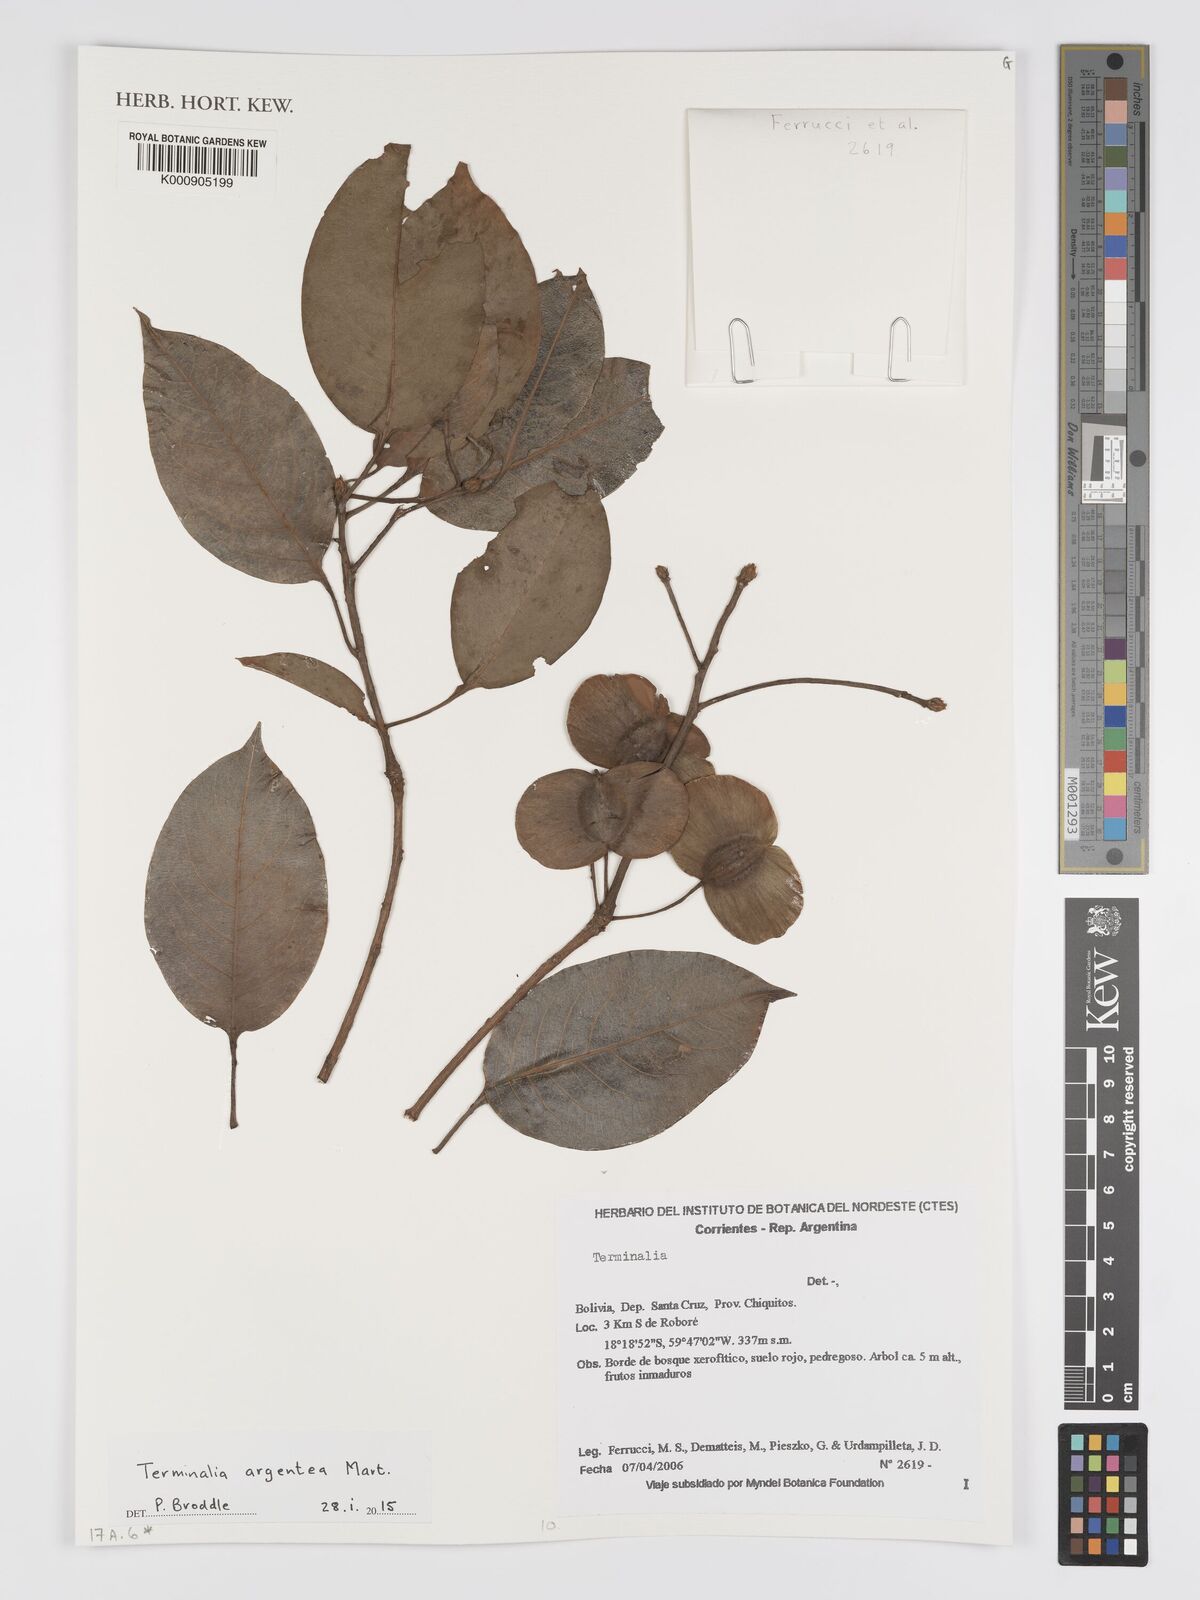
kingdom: Plantae
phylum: Tracheophyta
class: Magnoliopsida
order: Myrtales
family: Combretaceae
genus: Terminalia
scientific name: Terminalia argentea
